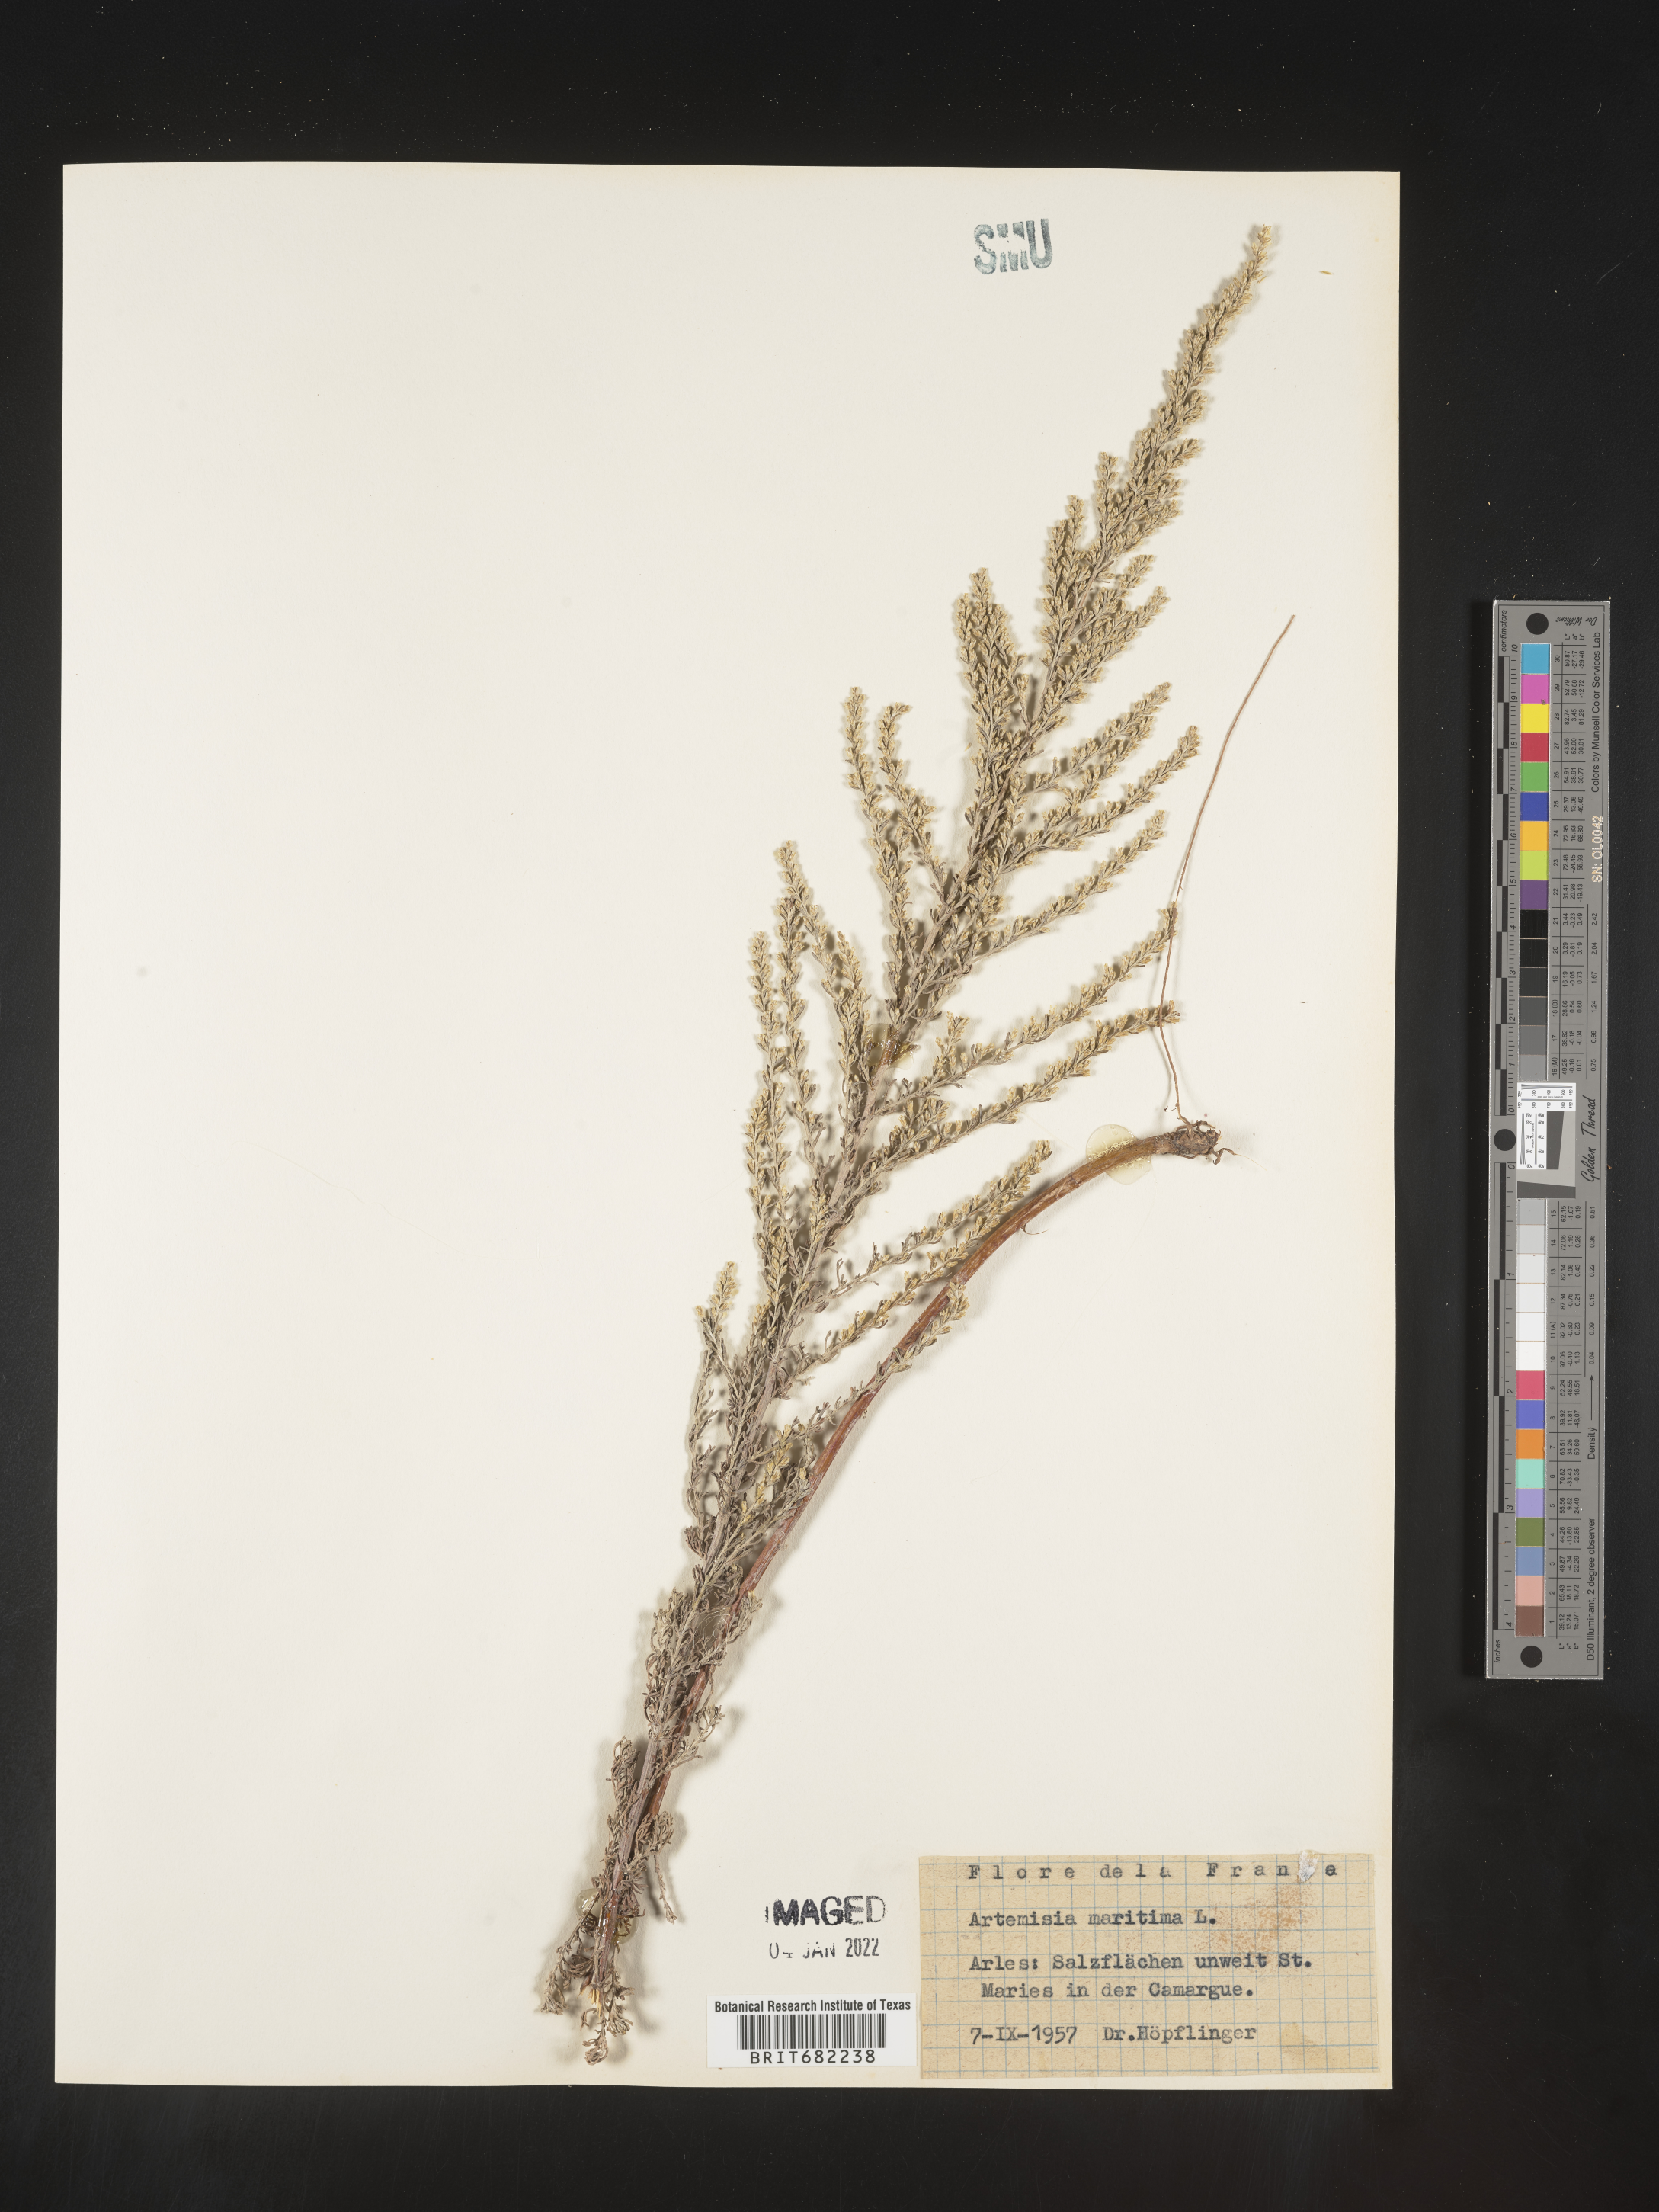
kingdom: Plantae
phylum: Tracheophyta
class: Magnoliopsida
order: Asterales
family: Asteraceae
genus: Artemisia
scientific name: Artemisia
